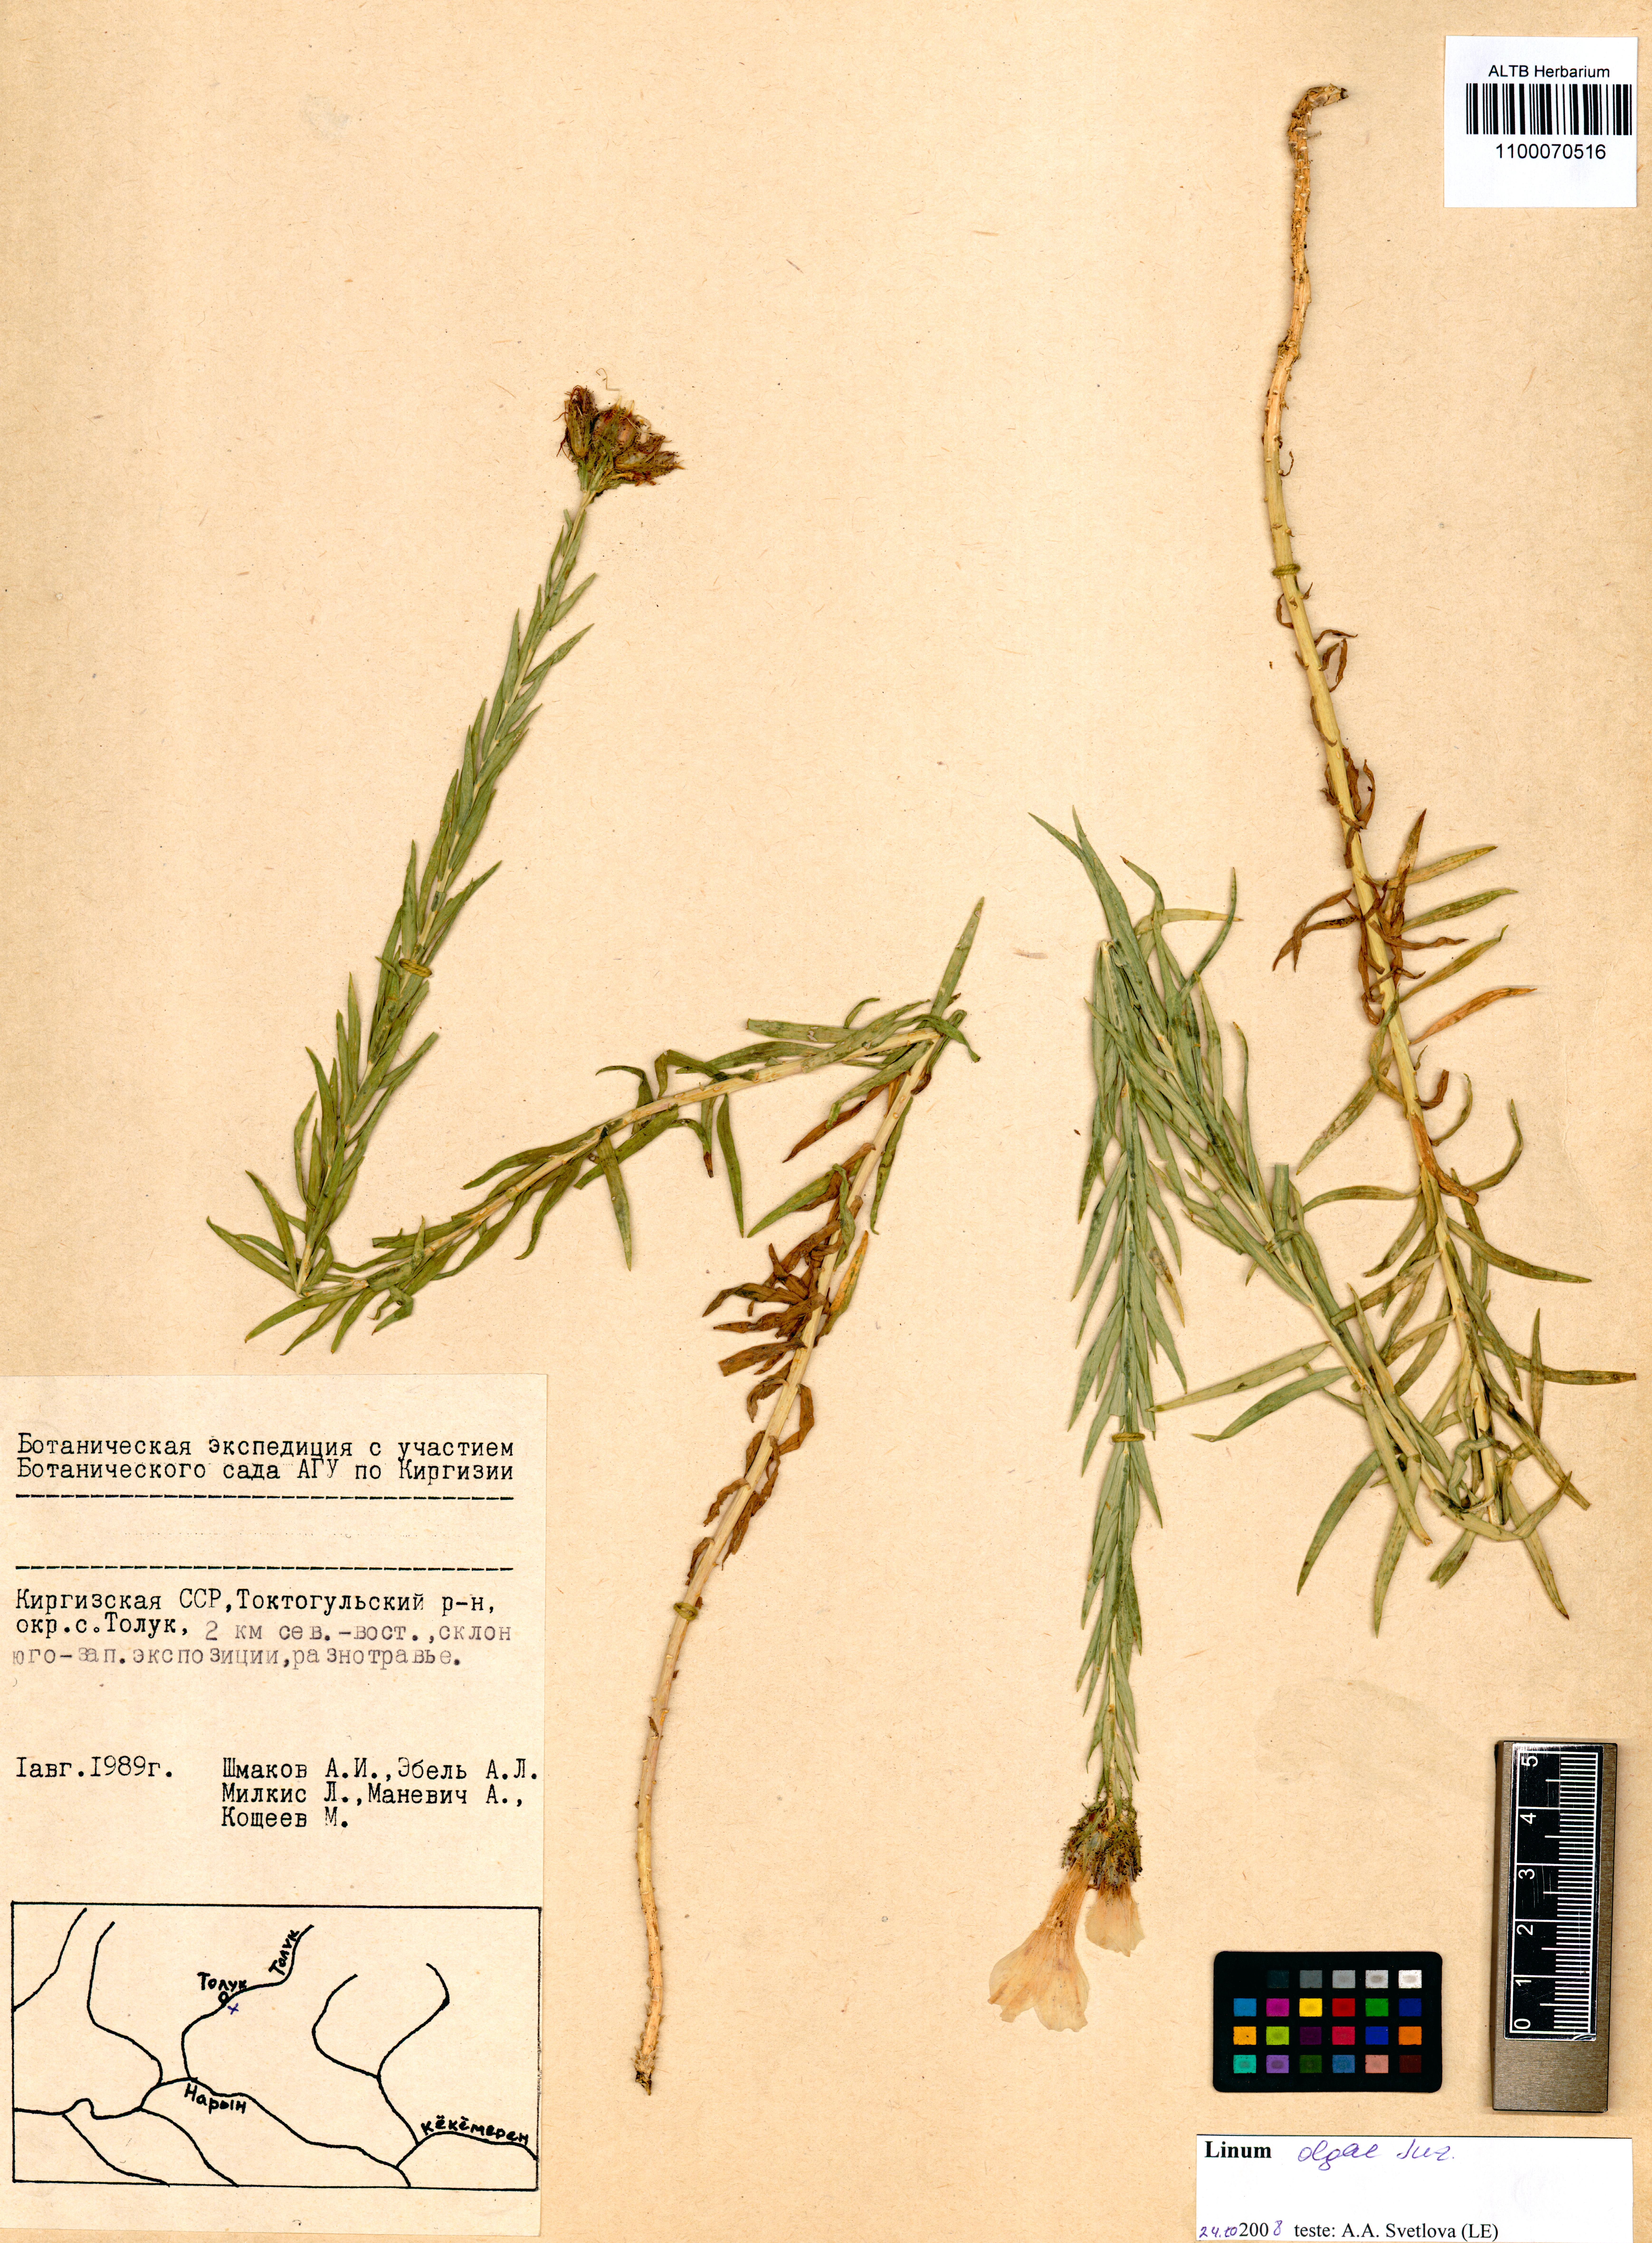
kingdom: Plantae
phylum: Tracheophyta
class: Magnoliopsida
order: Malpighiales
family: Linaceae
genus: Linum
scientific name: Linum olgae
